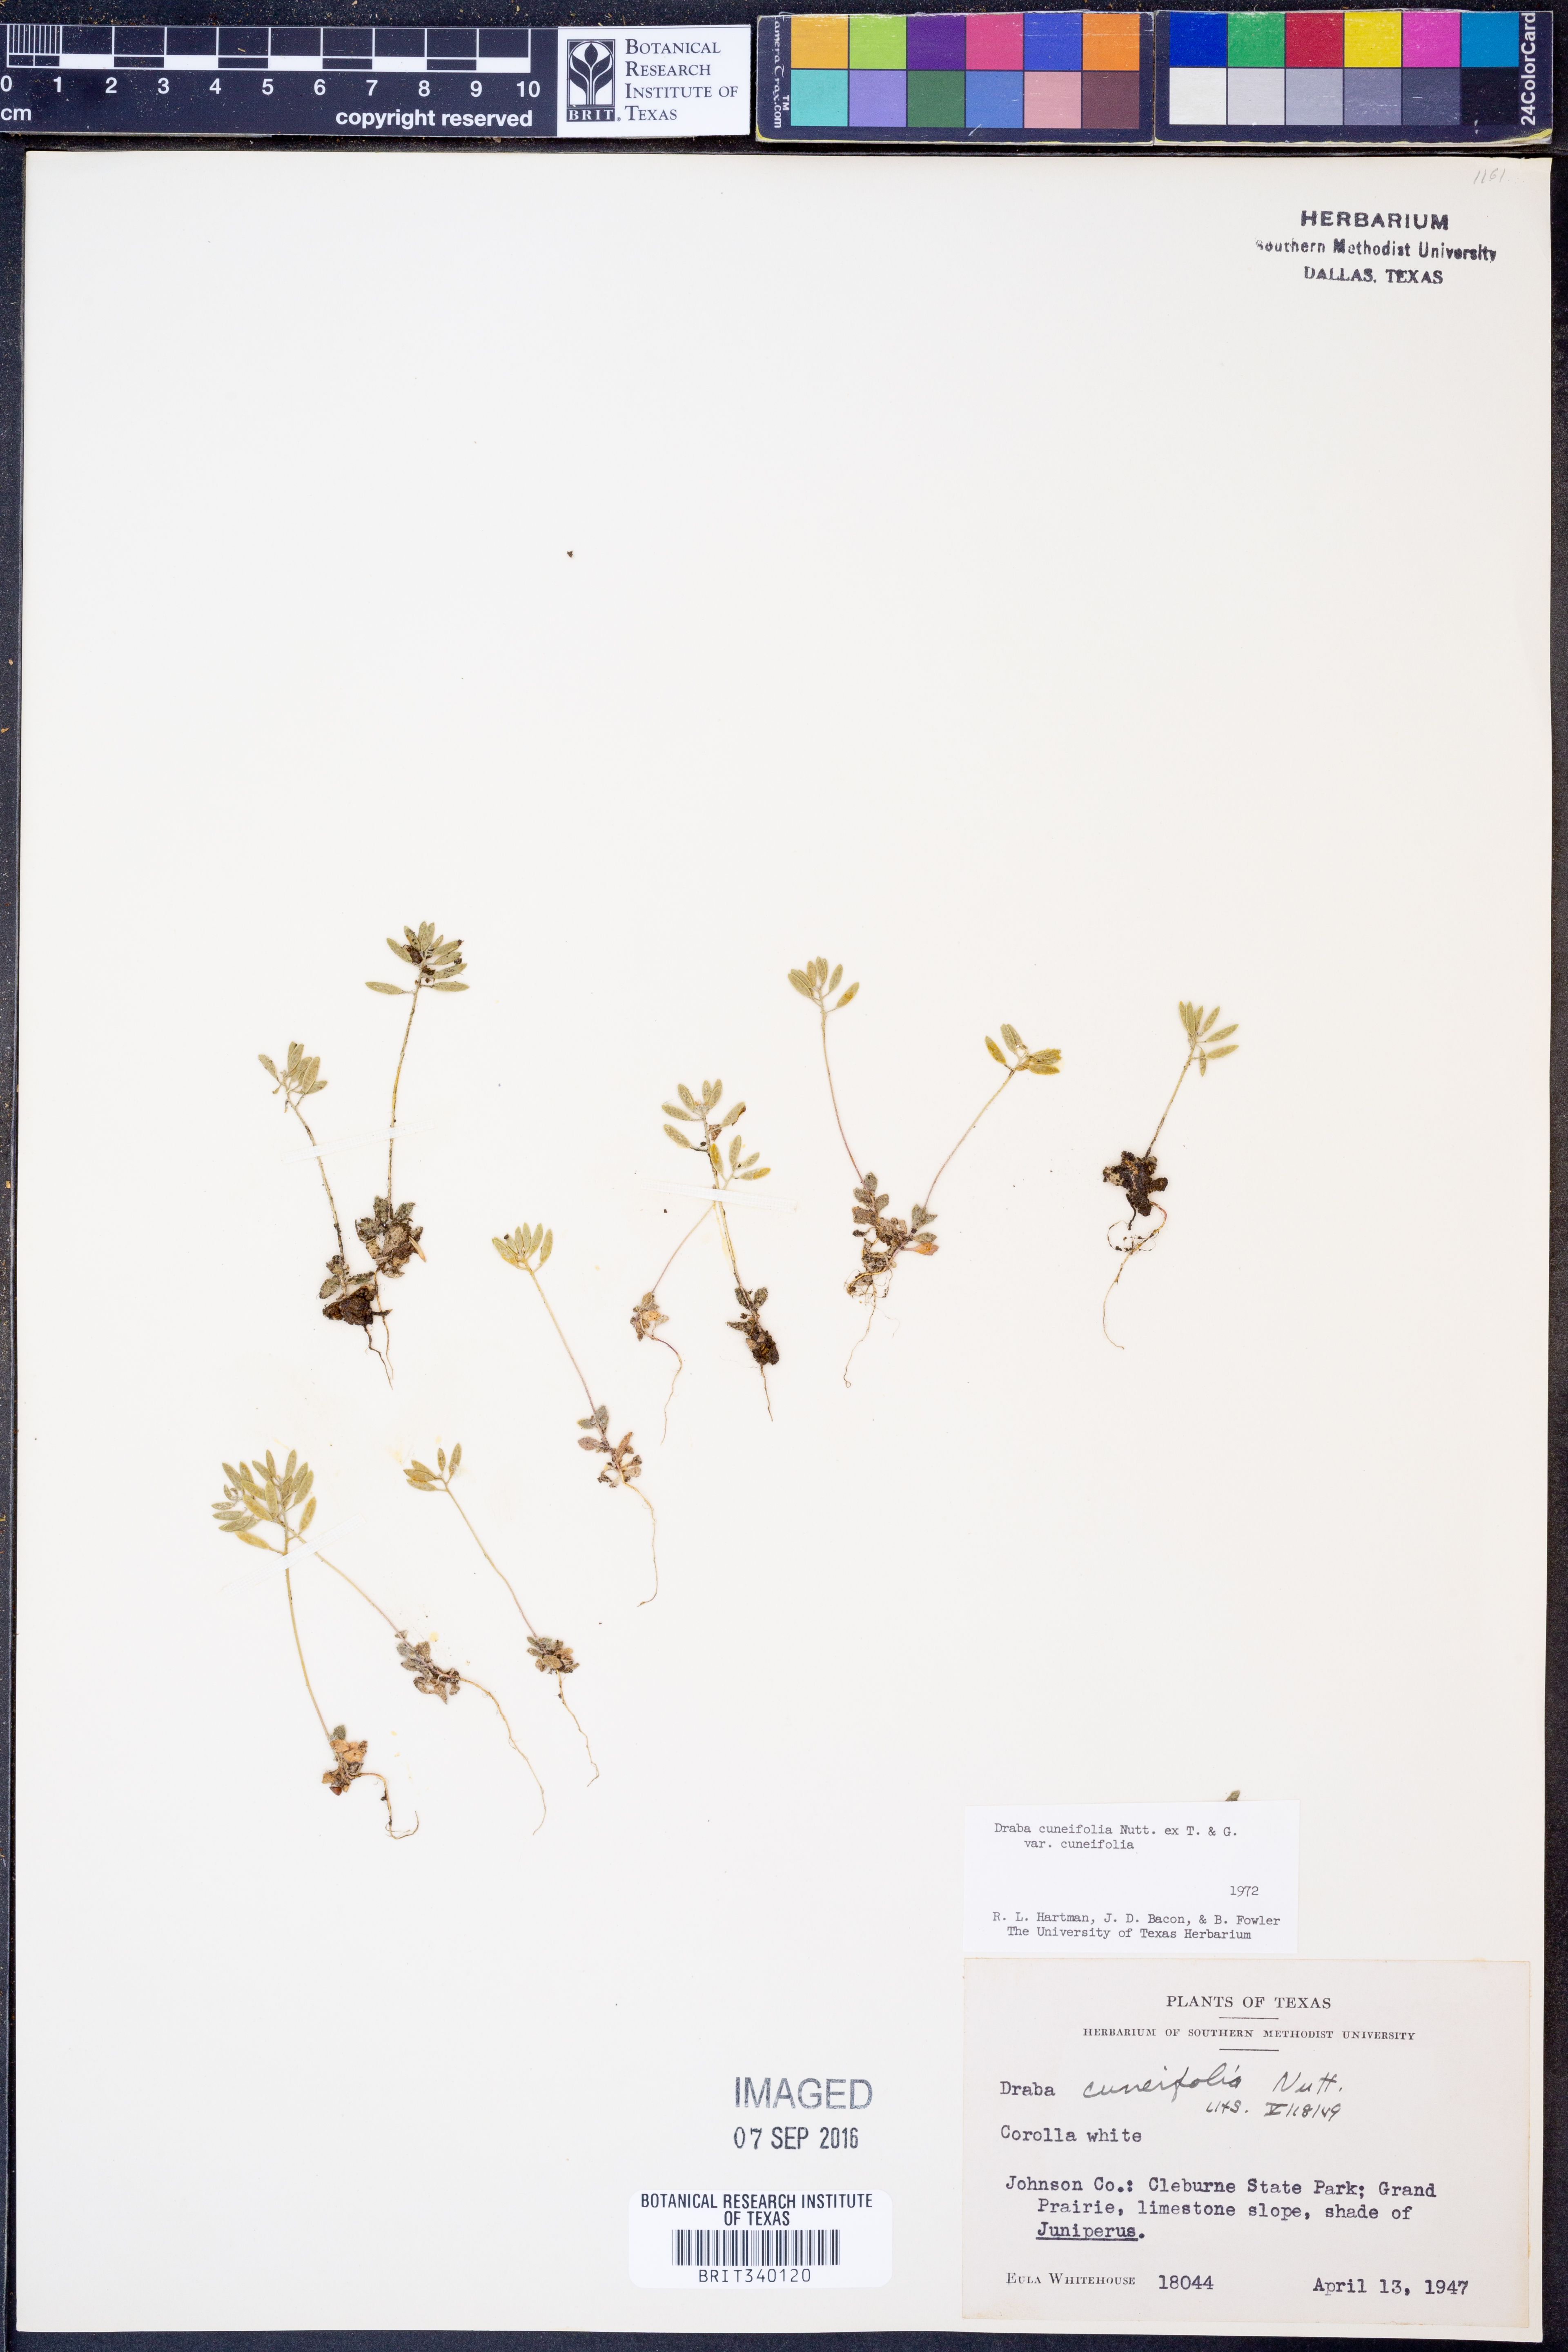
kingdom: Plantae
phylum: Tracheophyta
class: Magnoliopsida
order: Brassicales
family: Brassicaceae
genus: Tomostima
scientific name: Tomostima cuneifolia
